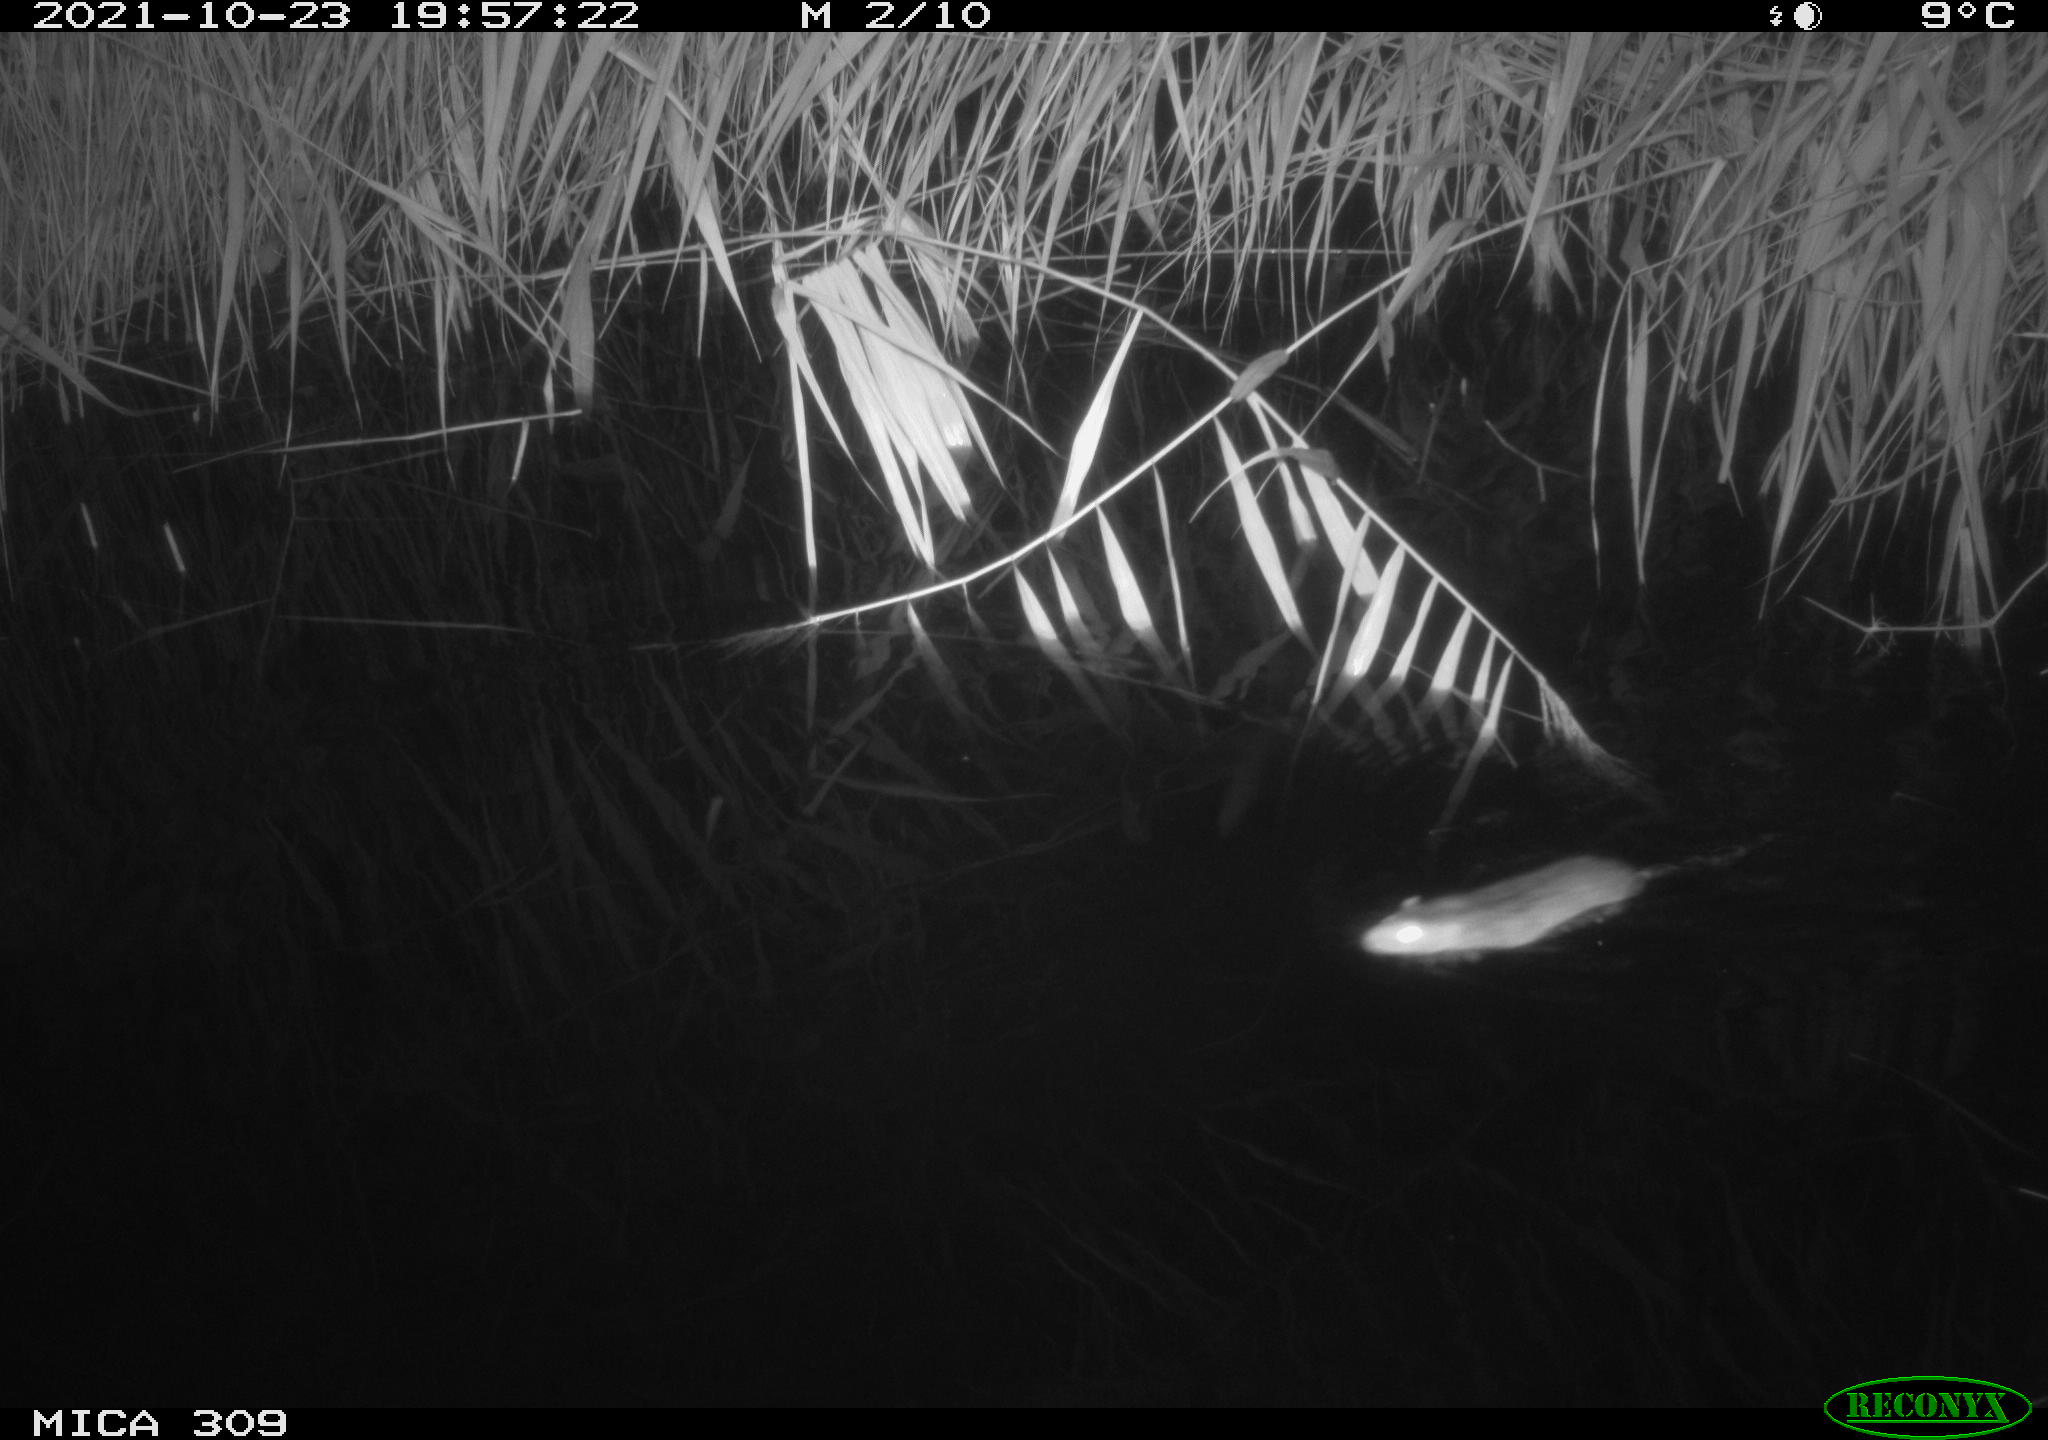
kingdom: Animalia
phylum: Chordata
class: Mammalia
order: Rodentia
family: Muridae
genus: Rattus
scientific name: Rattus norvegicus
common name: Brown rat
